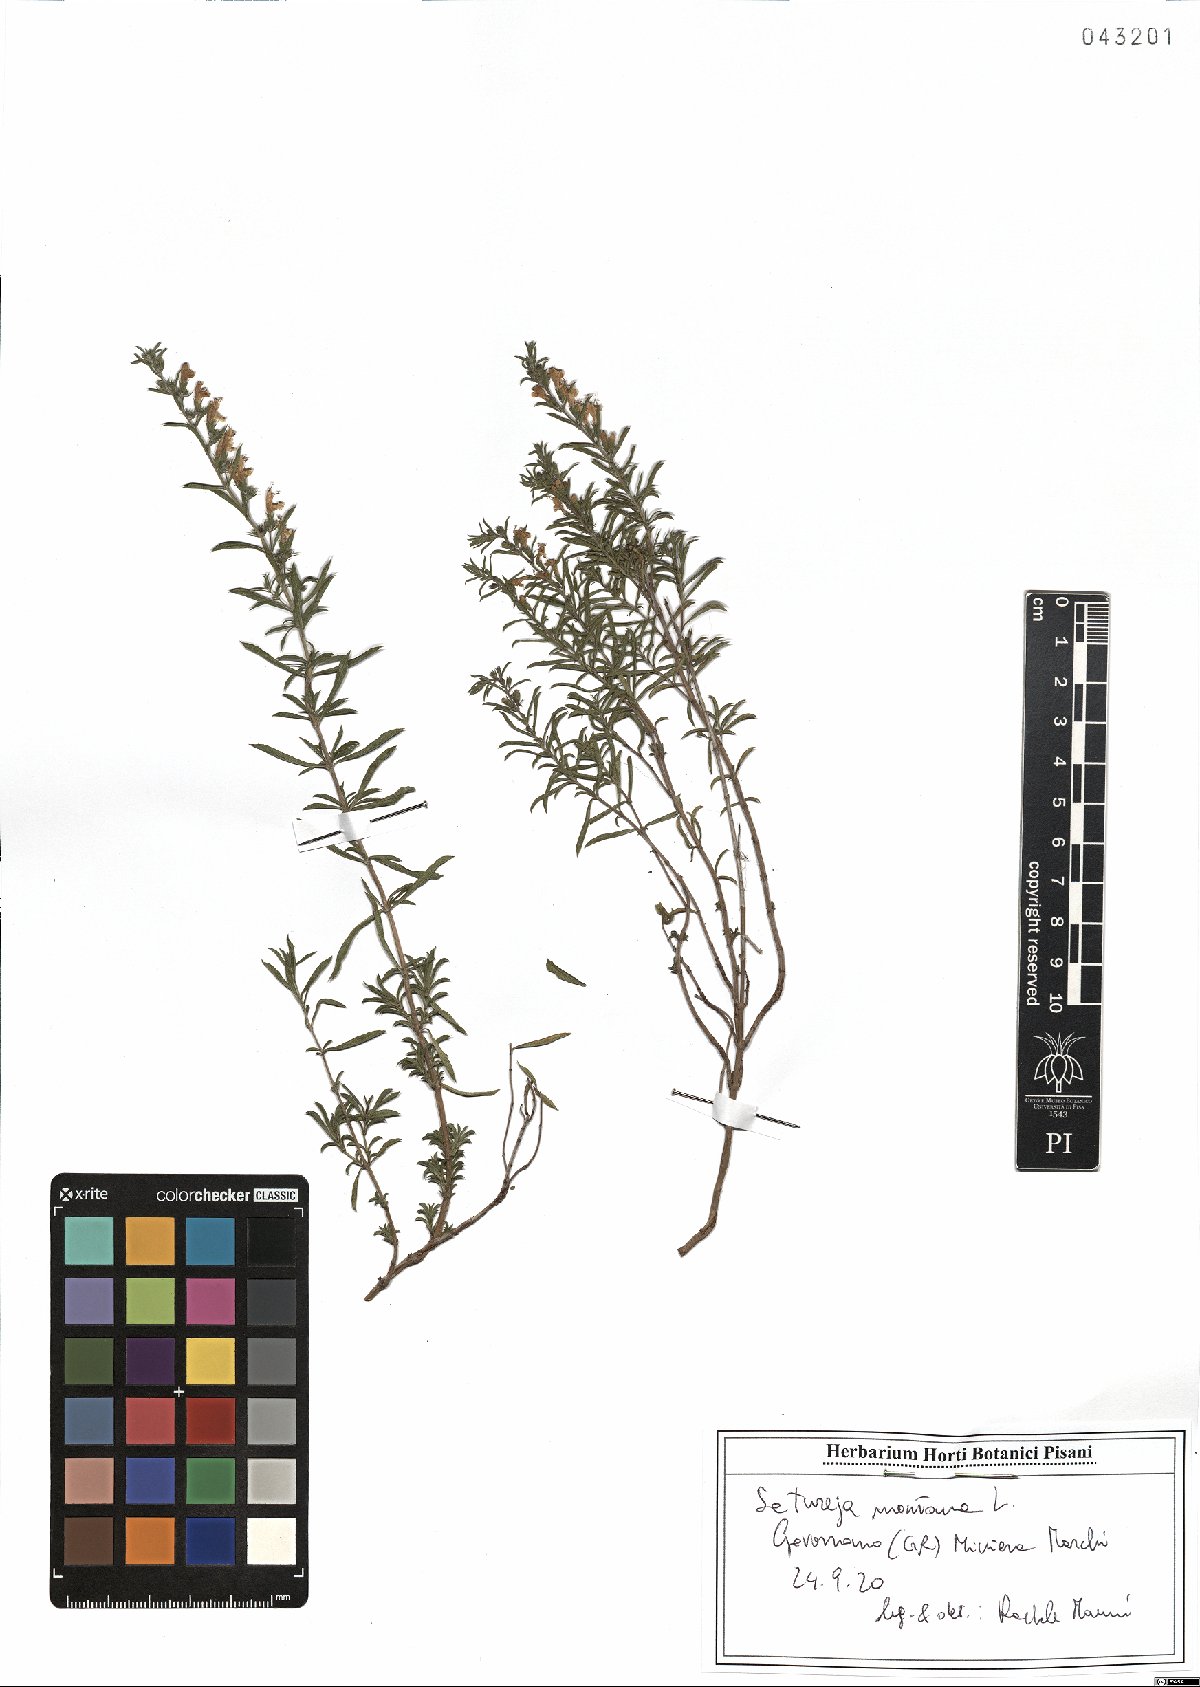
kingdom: Plantae
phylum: Tracheophyta
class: Magnoliopsida
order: Lamiales
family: Lamiaceae
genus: Satureja
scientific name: Satureja montana
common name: Winter savory
